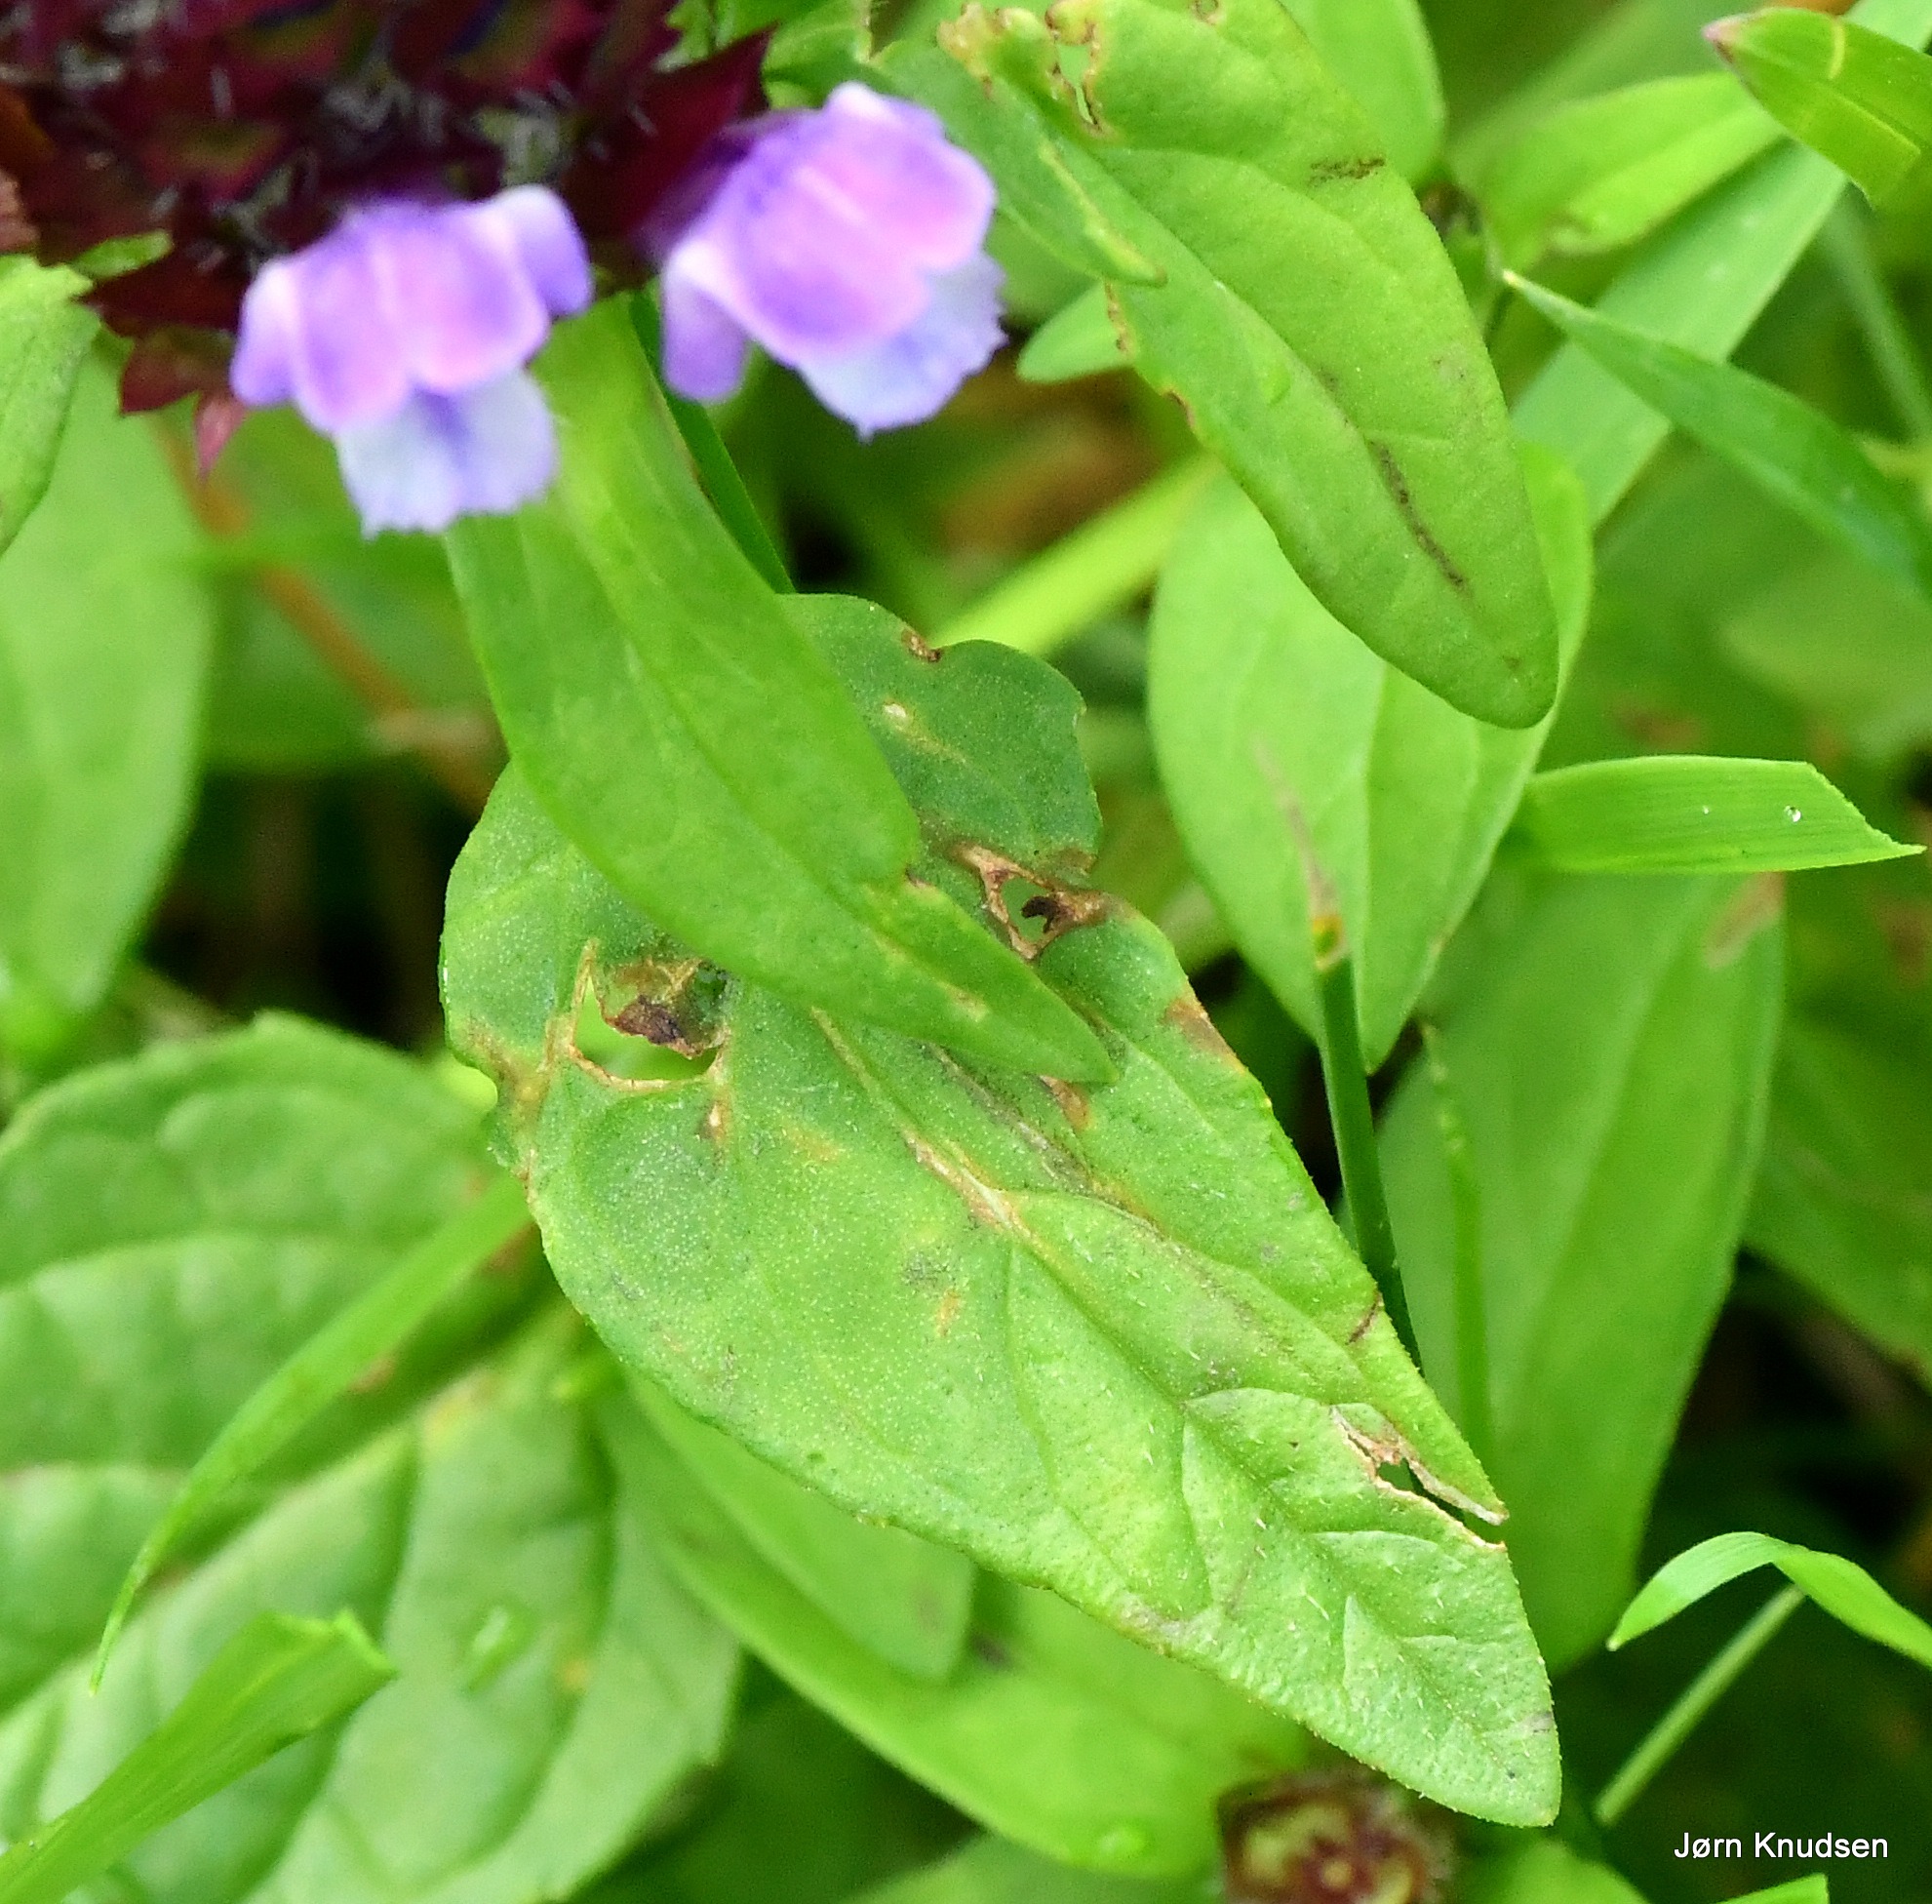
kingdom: Plantae
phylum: Tracheophyta
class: Magnoliopsida
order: Lamiales
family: Lamiaceae
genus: Prunella
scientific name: Prunella vulgaris
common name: Almindelig brunelle
